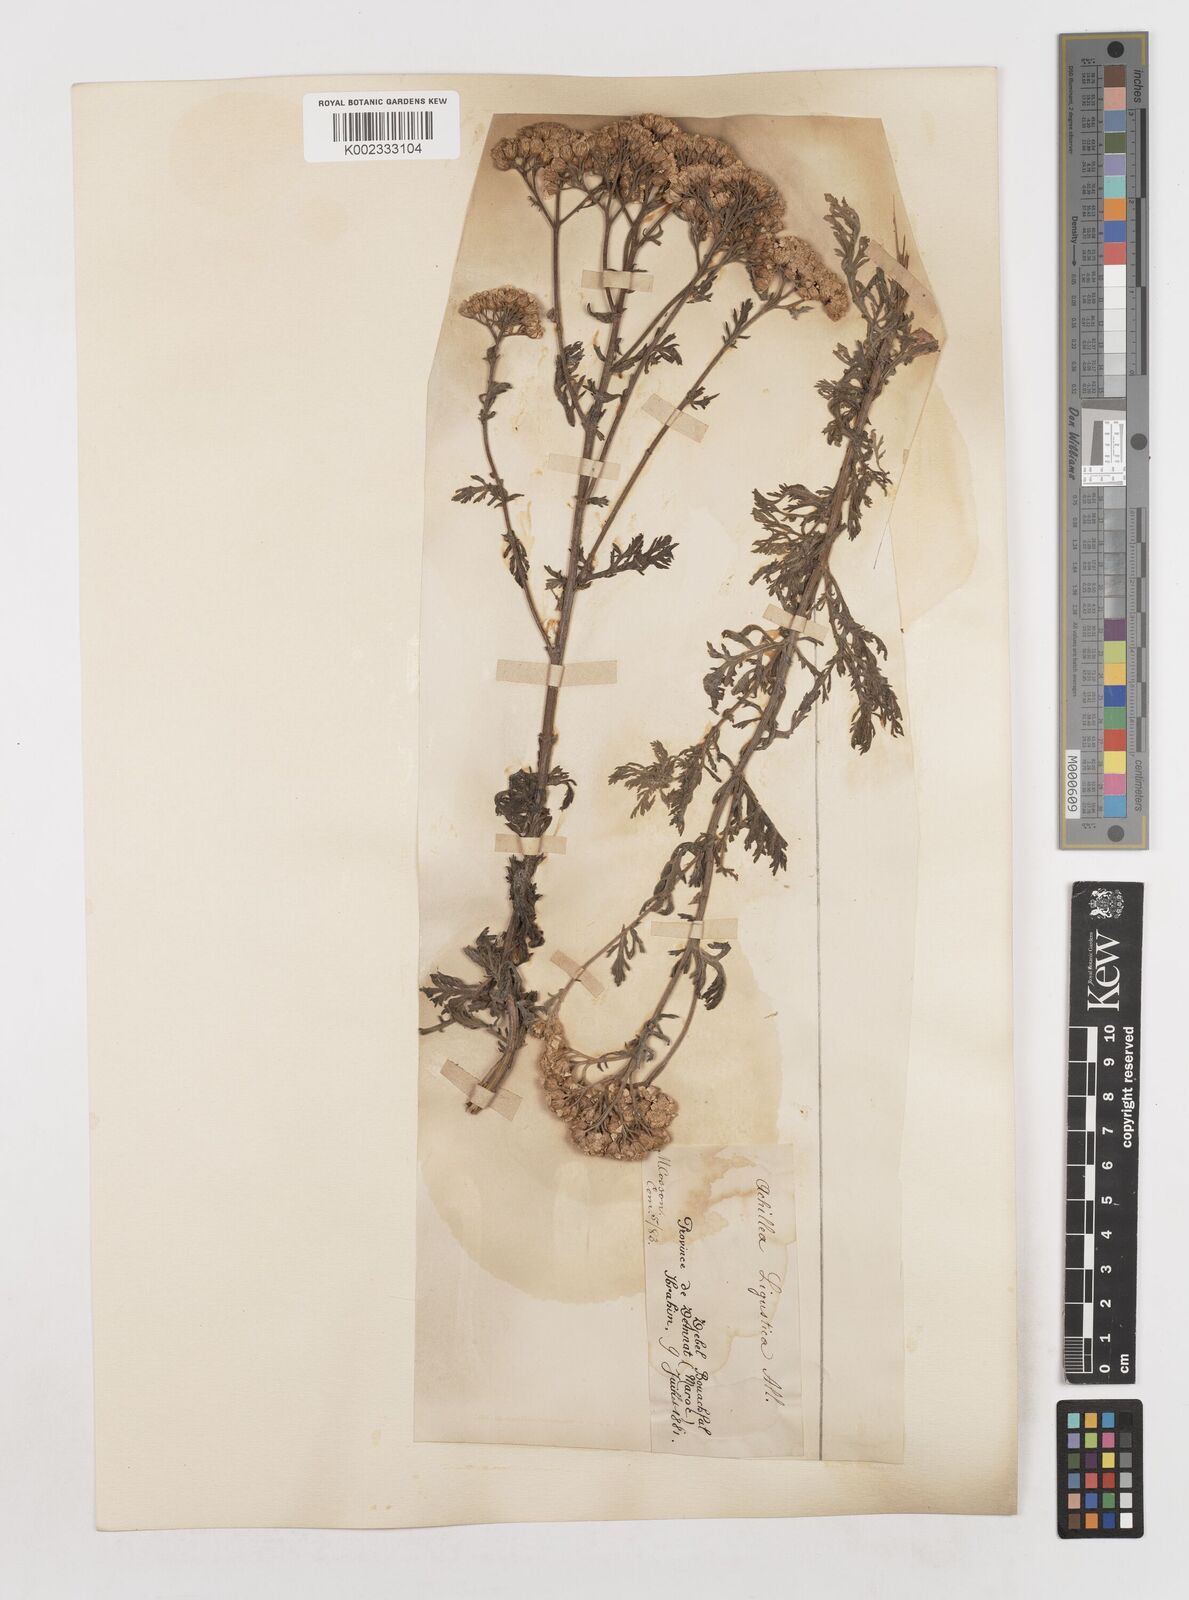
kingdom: Plantae
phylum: Tracheophyta
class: Magnoliopsida
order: Asterales
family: Asteraceae
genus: Achillea
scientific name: Achillea ligustica
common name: Southern yarrow
